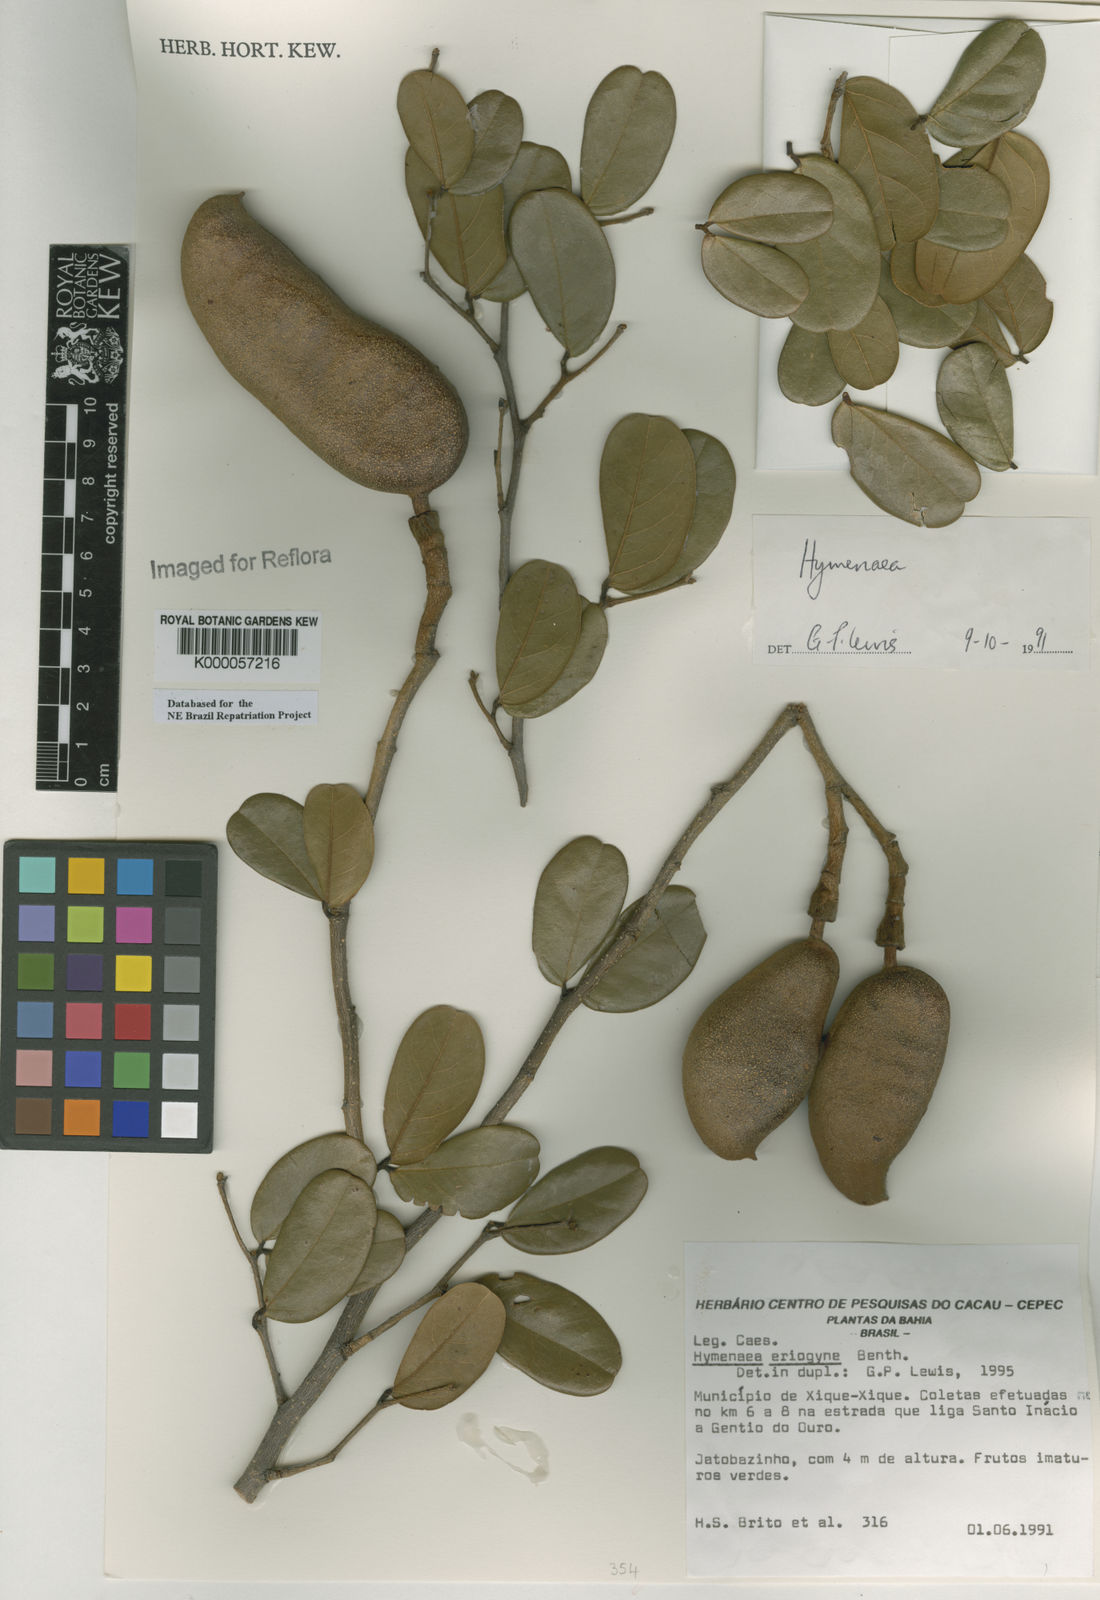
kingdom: Plantae
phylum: Tracheophyta
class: Magnoliopsida
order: Fabales
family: Fabaceae
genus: Hymenaea
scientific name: Hymenaea eriogyne
